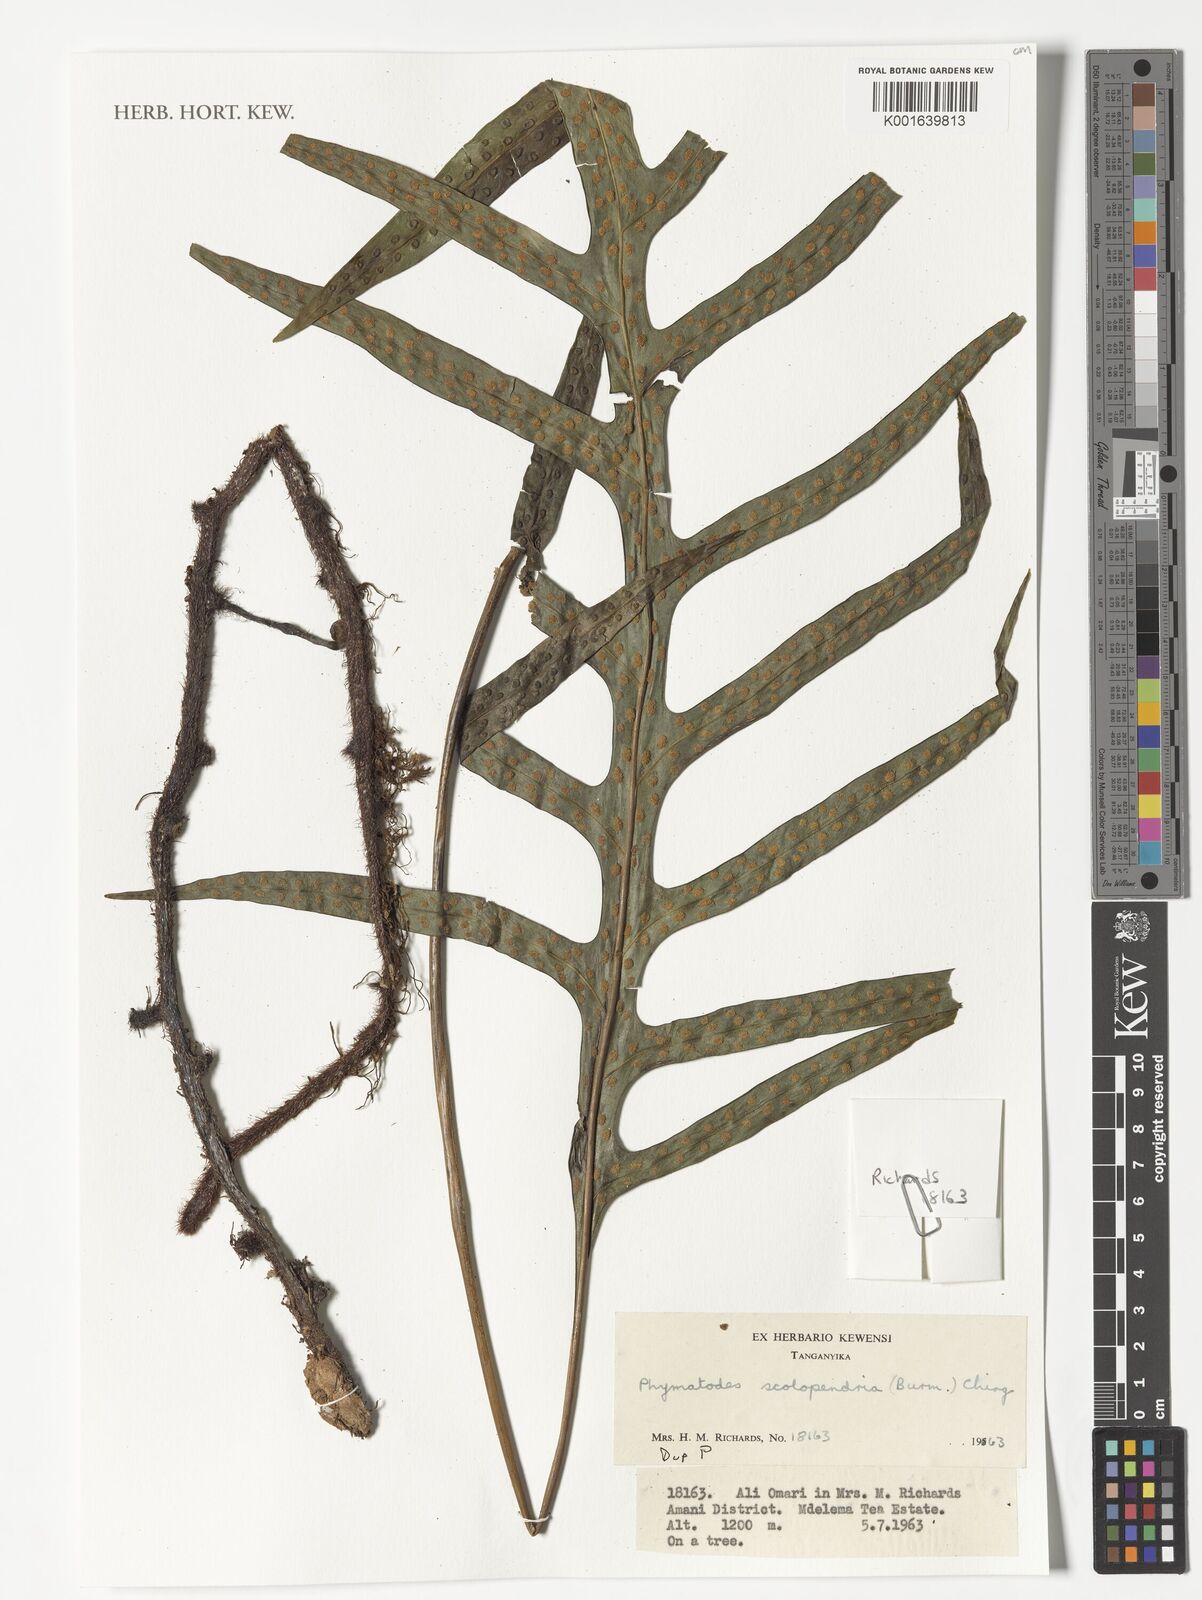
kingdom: Plantae
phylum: Tracheophyta
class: Polypodiopsida
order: Polypodiales
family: Polypodiaceae
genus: Microsorum
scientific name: Microsorum scolopendria
